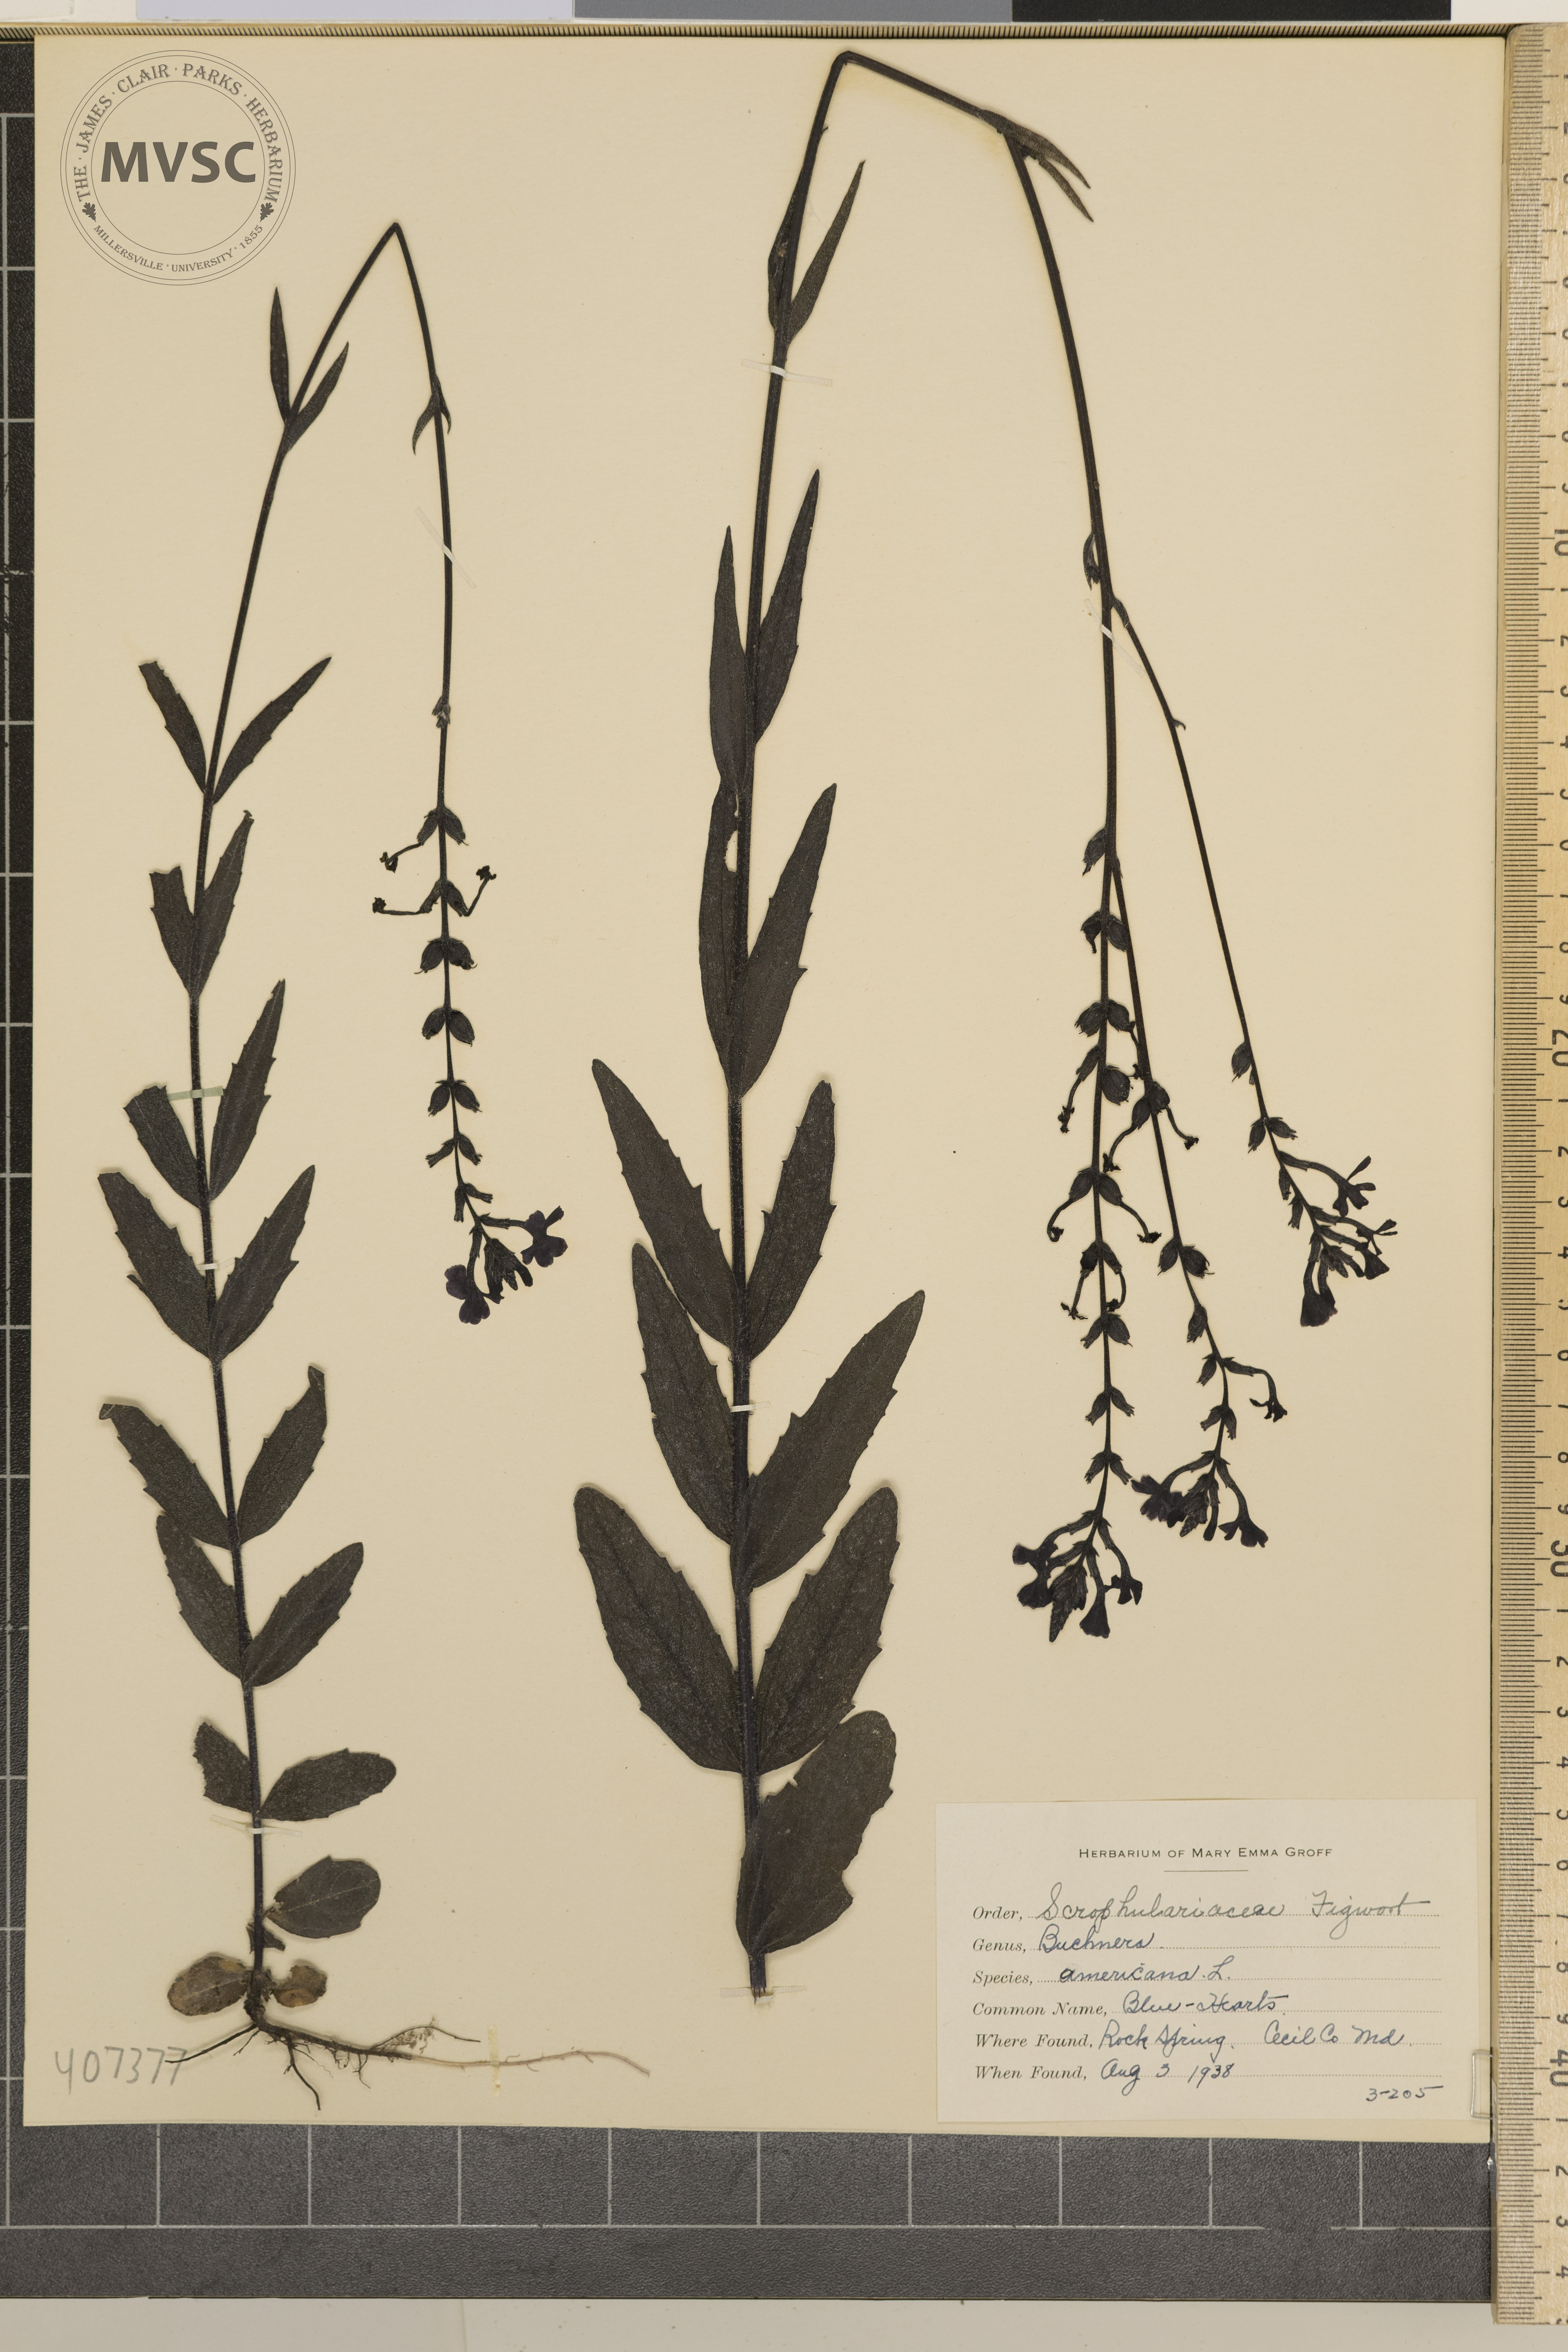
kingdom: Plantae
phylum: Tracheophyta
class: Magnoliopsida
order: Lamiales
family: Orobanchaceae
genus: Buchnera
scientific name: Buchnera americana
